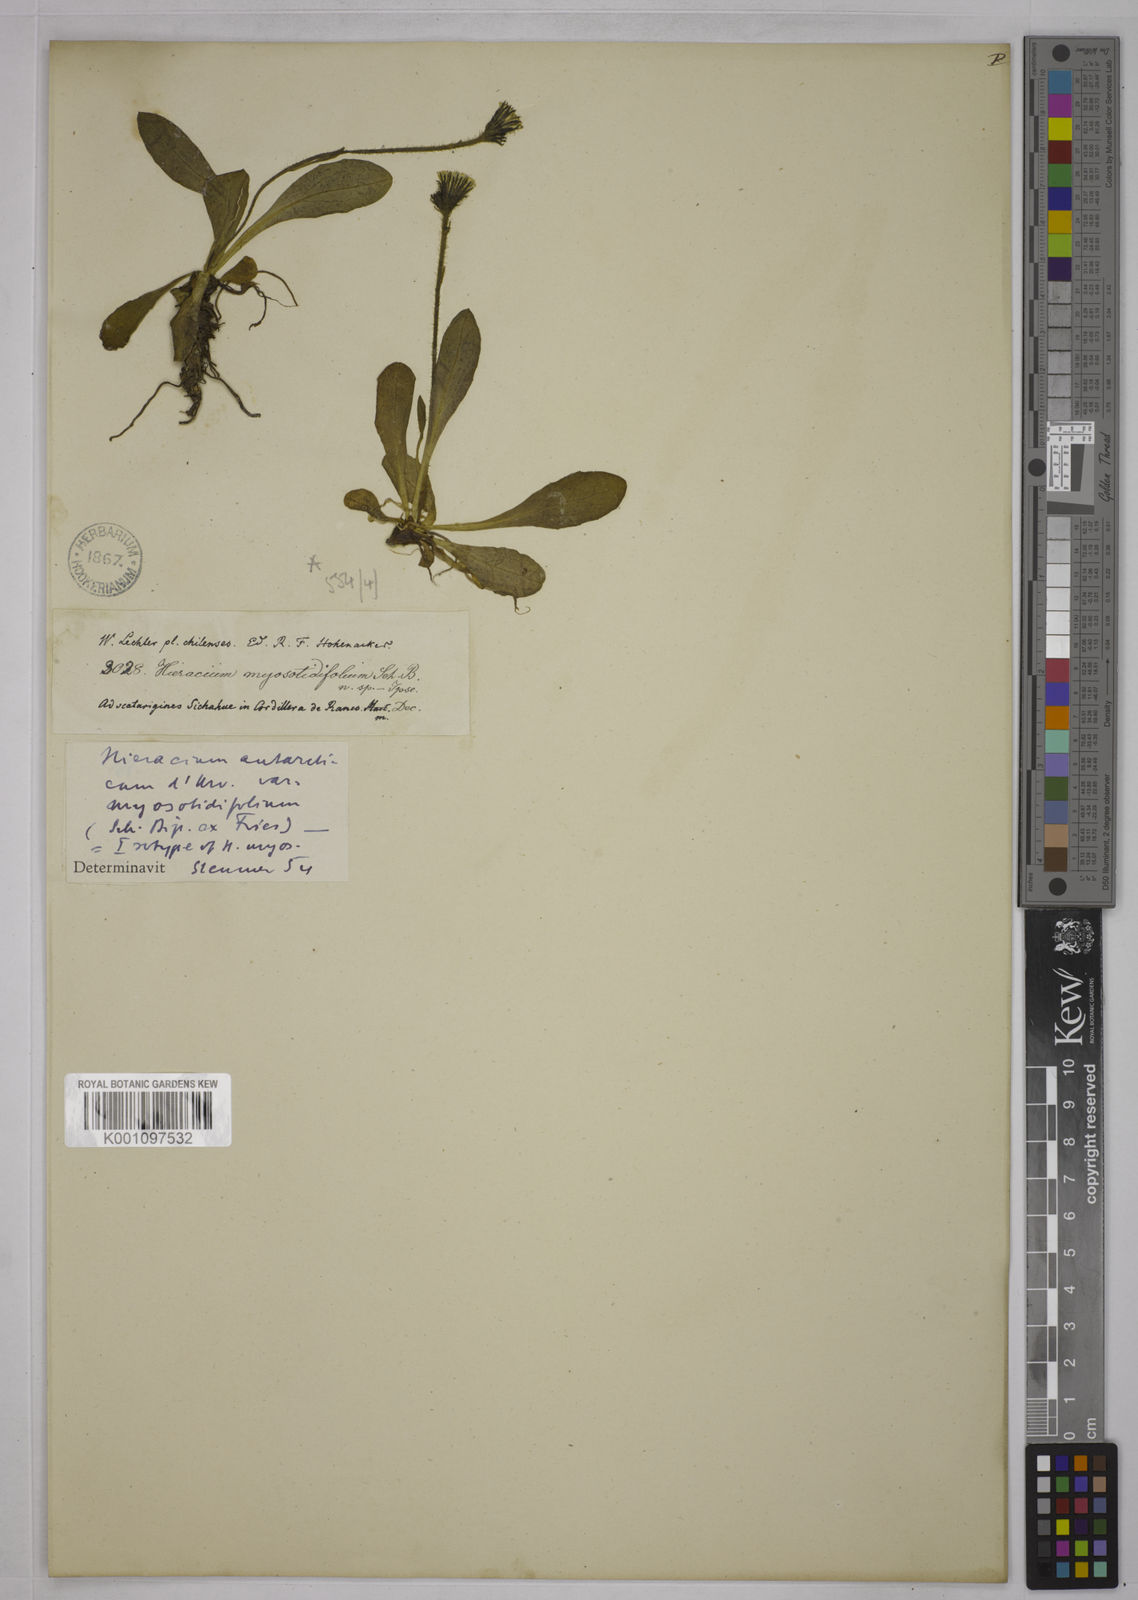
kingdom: Plantae
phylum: Tracheophyta
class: Magnoliopsida
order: Asterales
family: Asteraceae
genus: Hieracium
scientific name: Hieracium antarcticum
